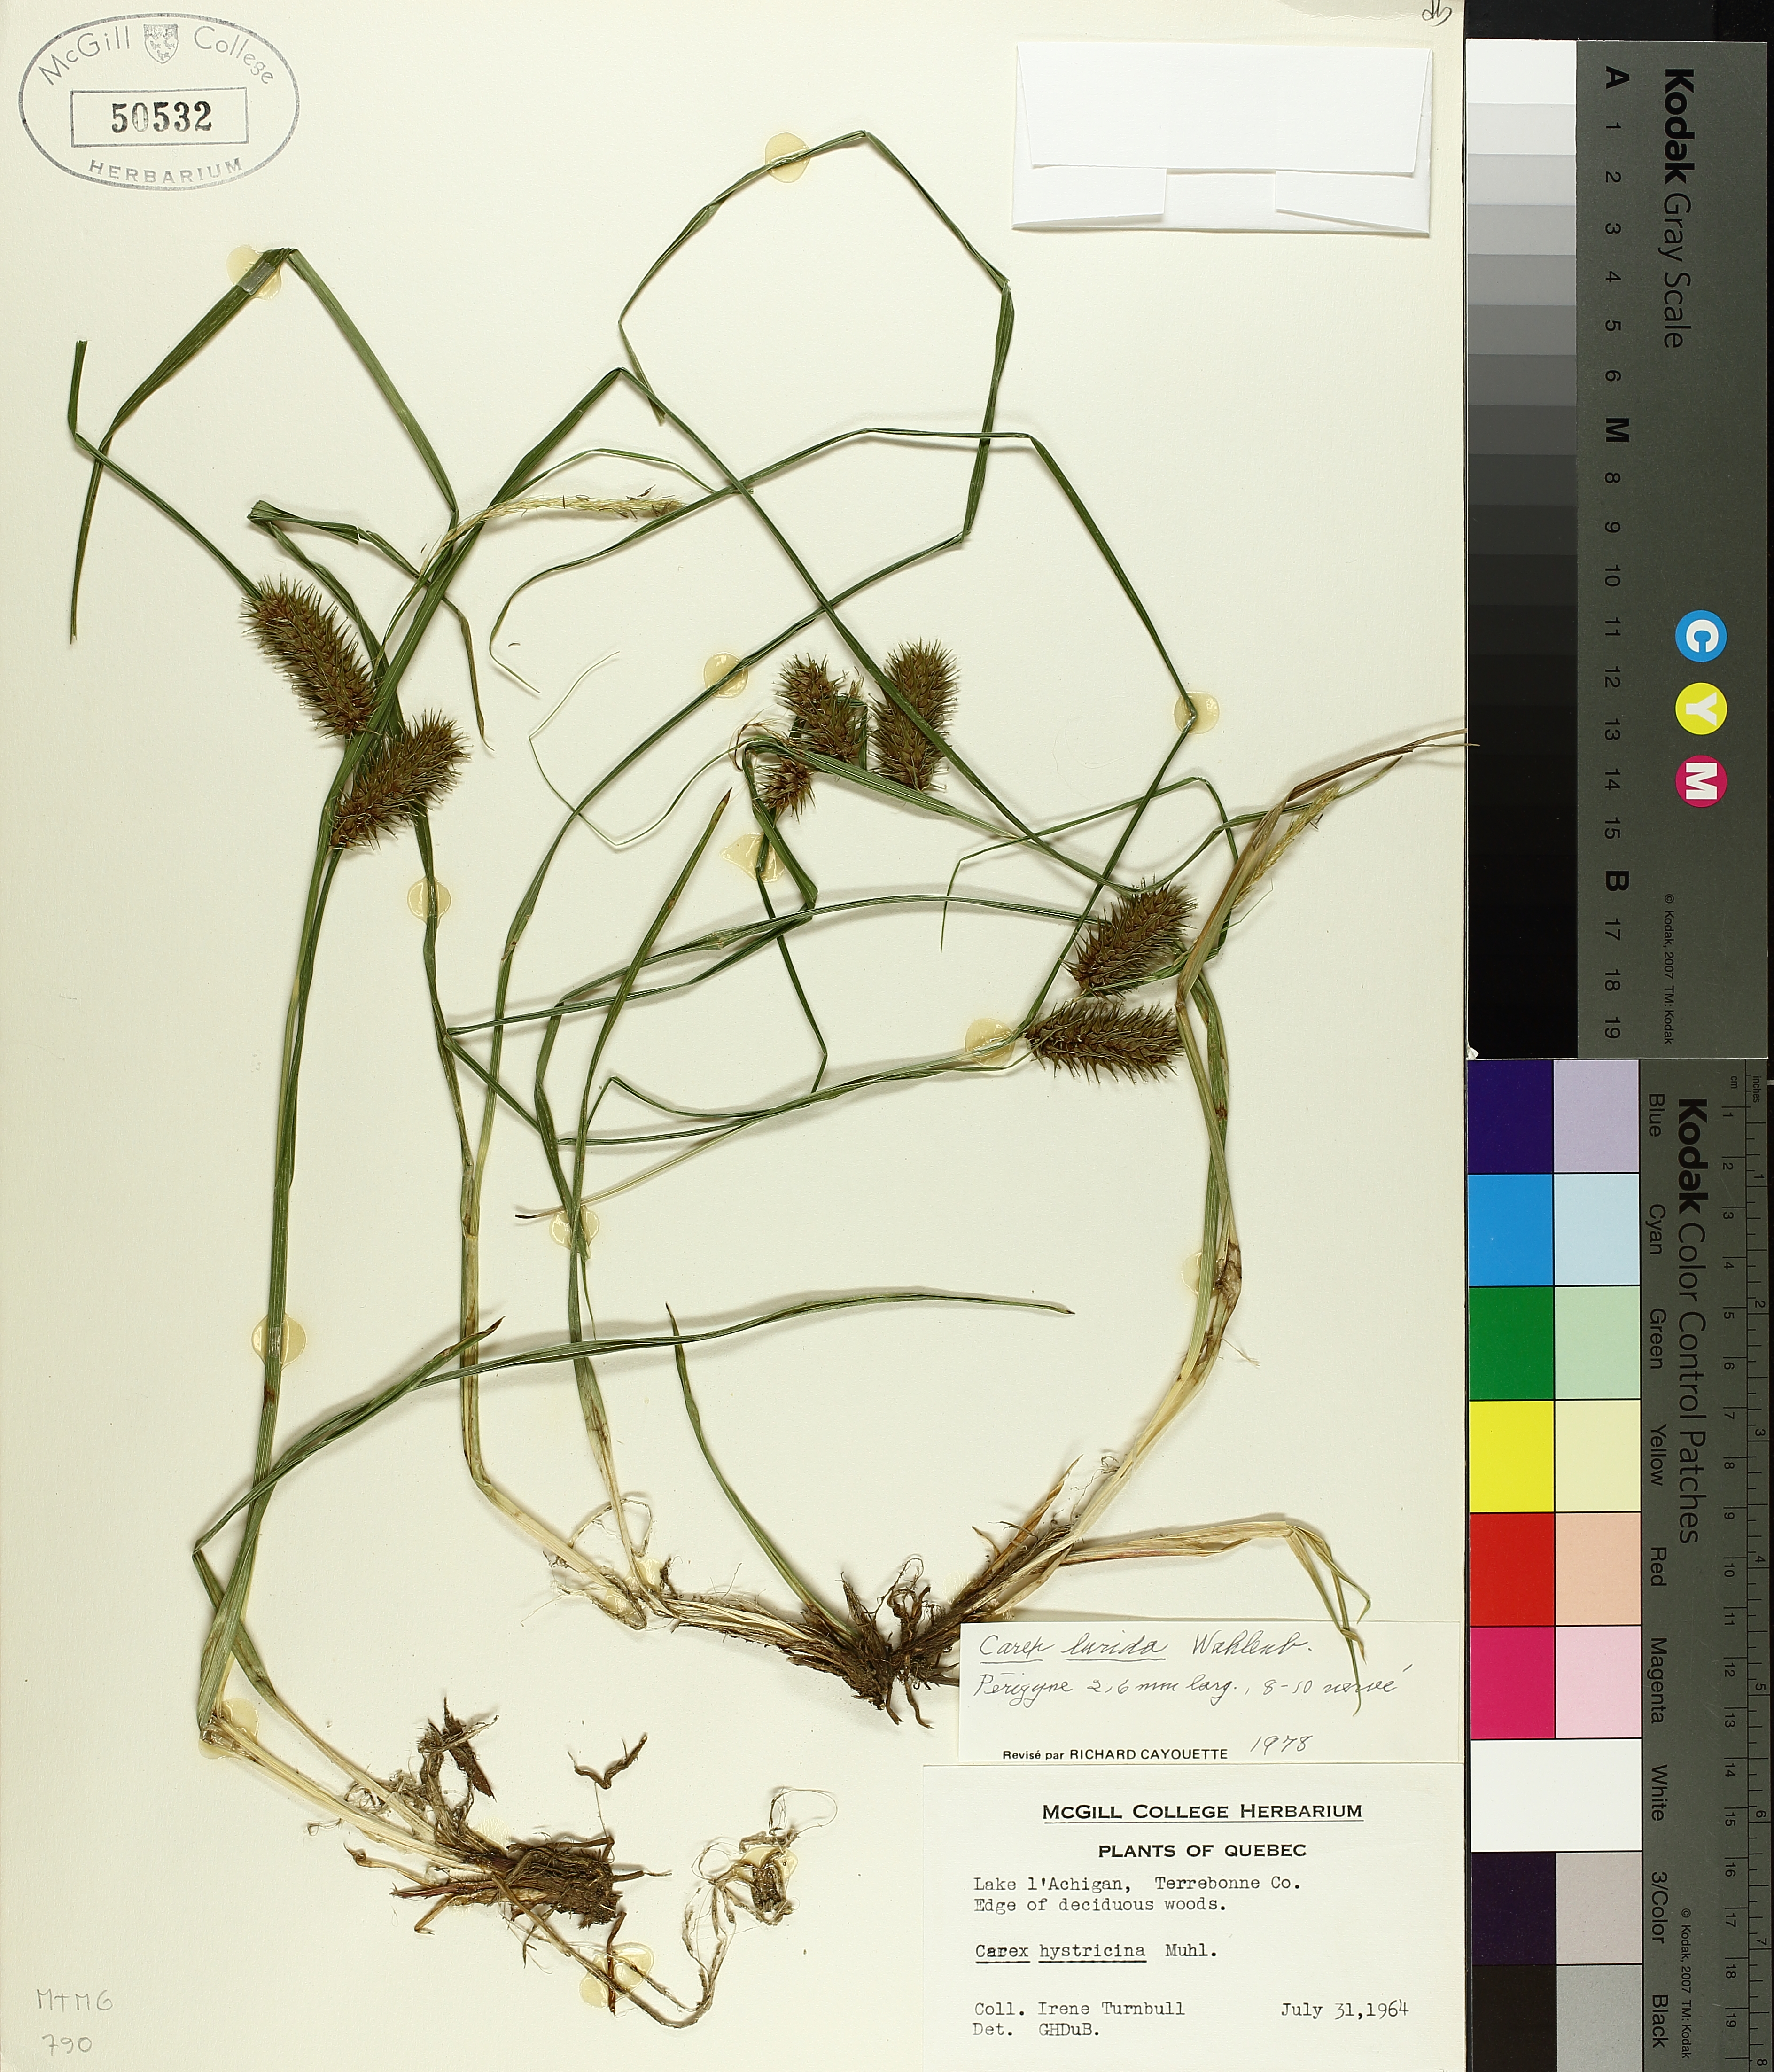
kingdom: Plantae
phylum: Tracheophyta
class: Liliopsida
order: Poales
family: Cyperaceae
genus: Carex
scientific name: Carex lurida
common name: Sallow sedge
